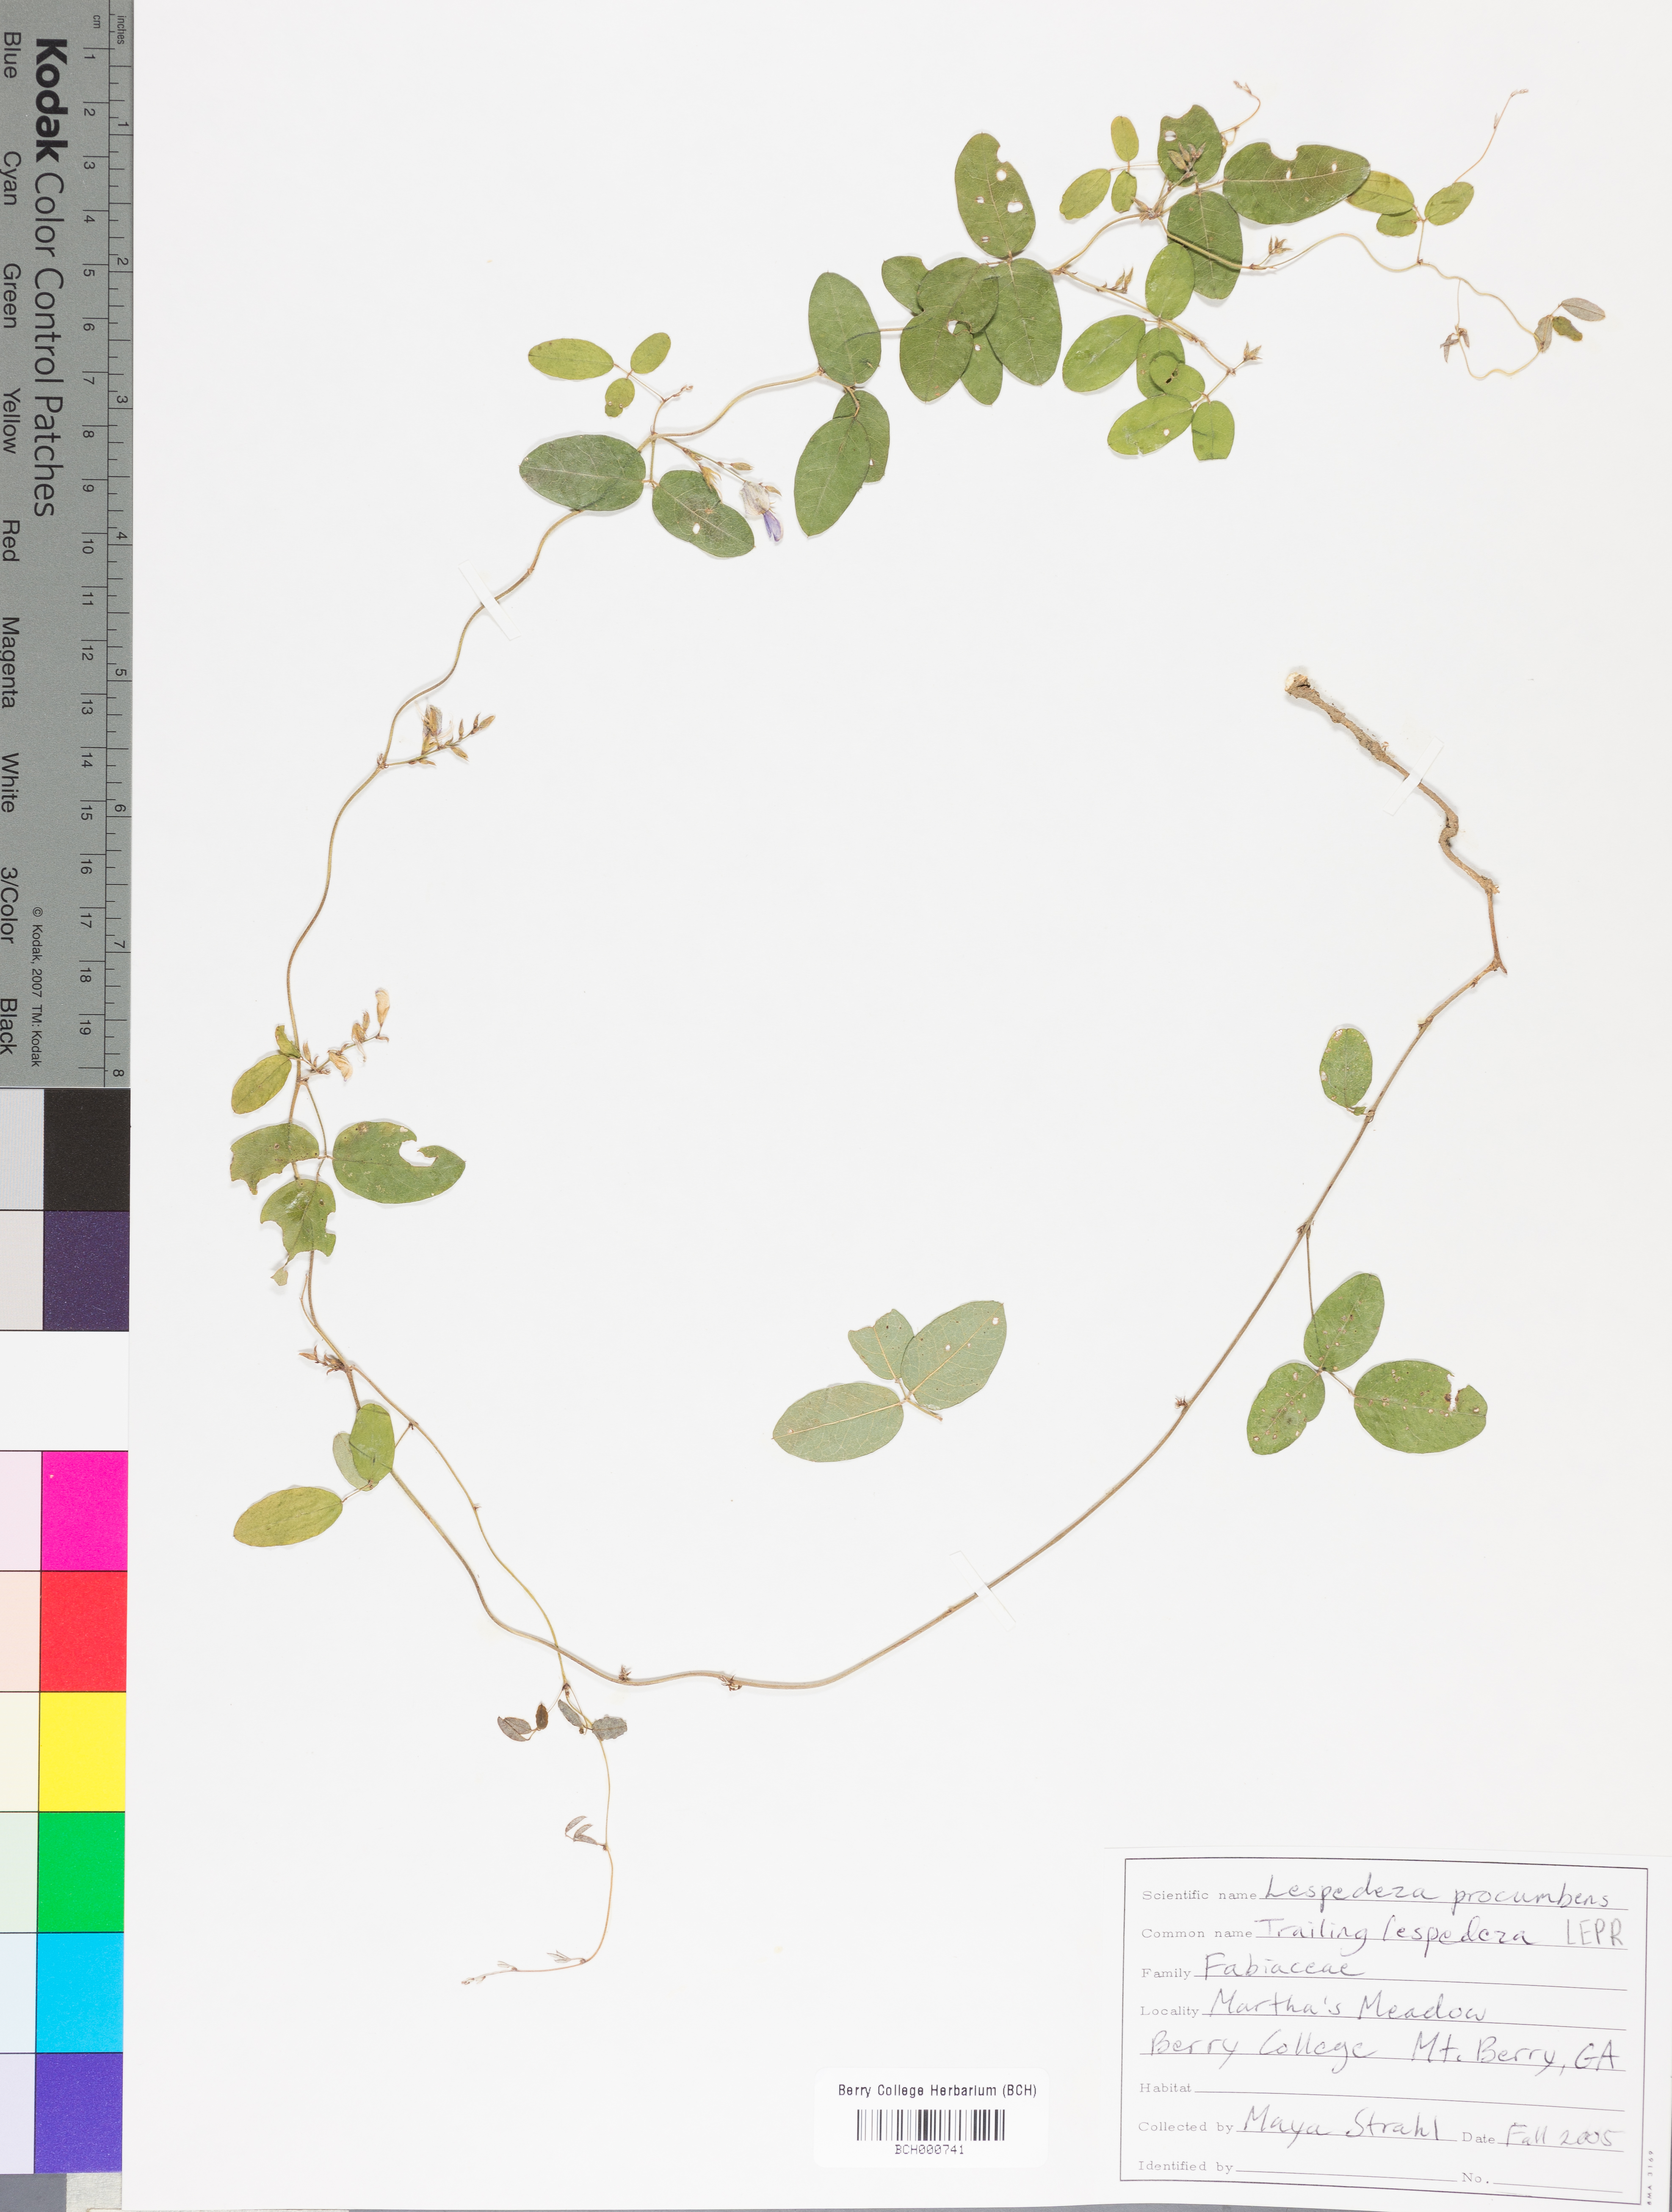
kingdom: Plantae
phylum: Tracheophyta
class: Magnoliopsida
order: Fabales
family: Fabaceae
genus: Lespedeza
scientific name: Lespedeza procumbens
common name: Downy trailing bush-clover
